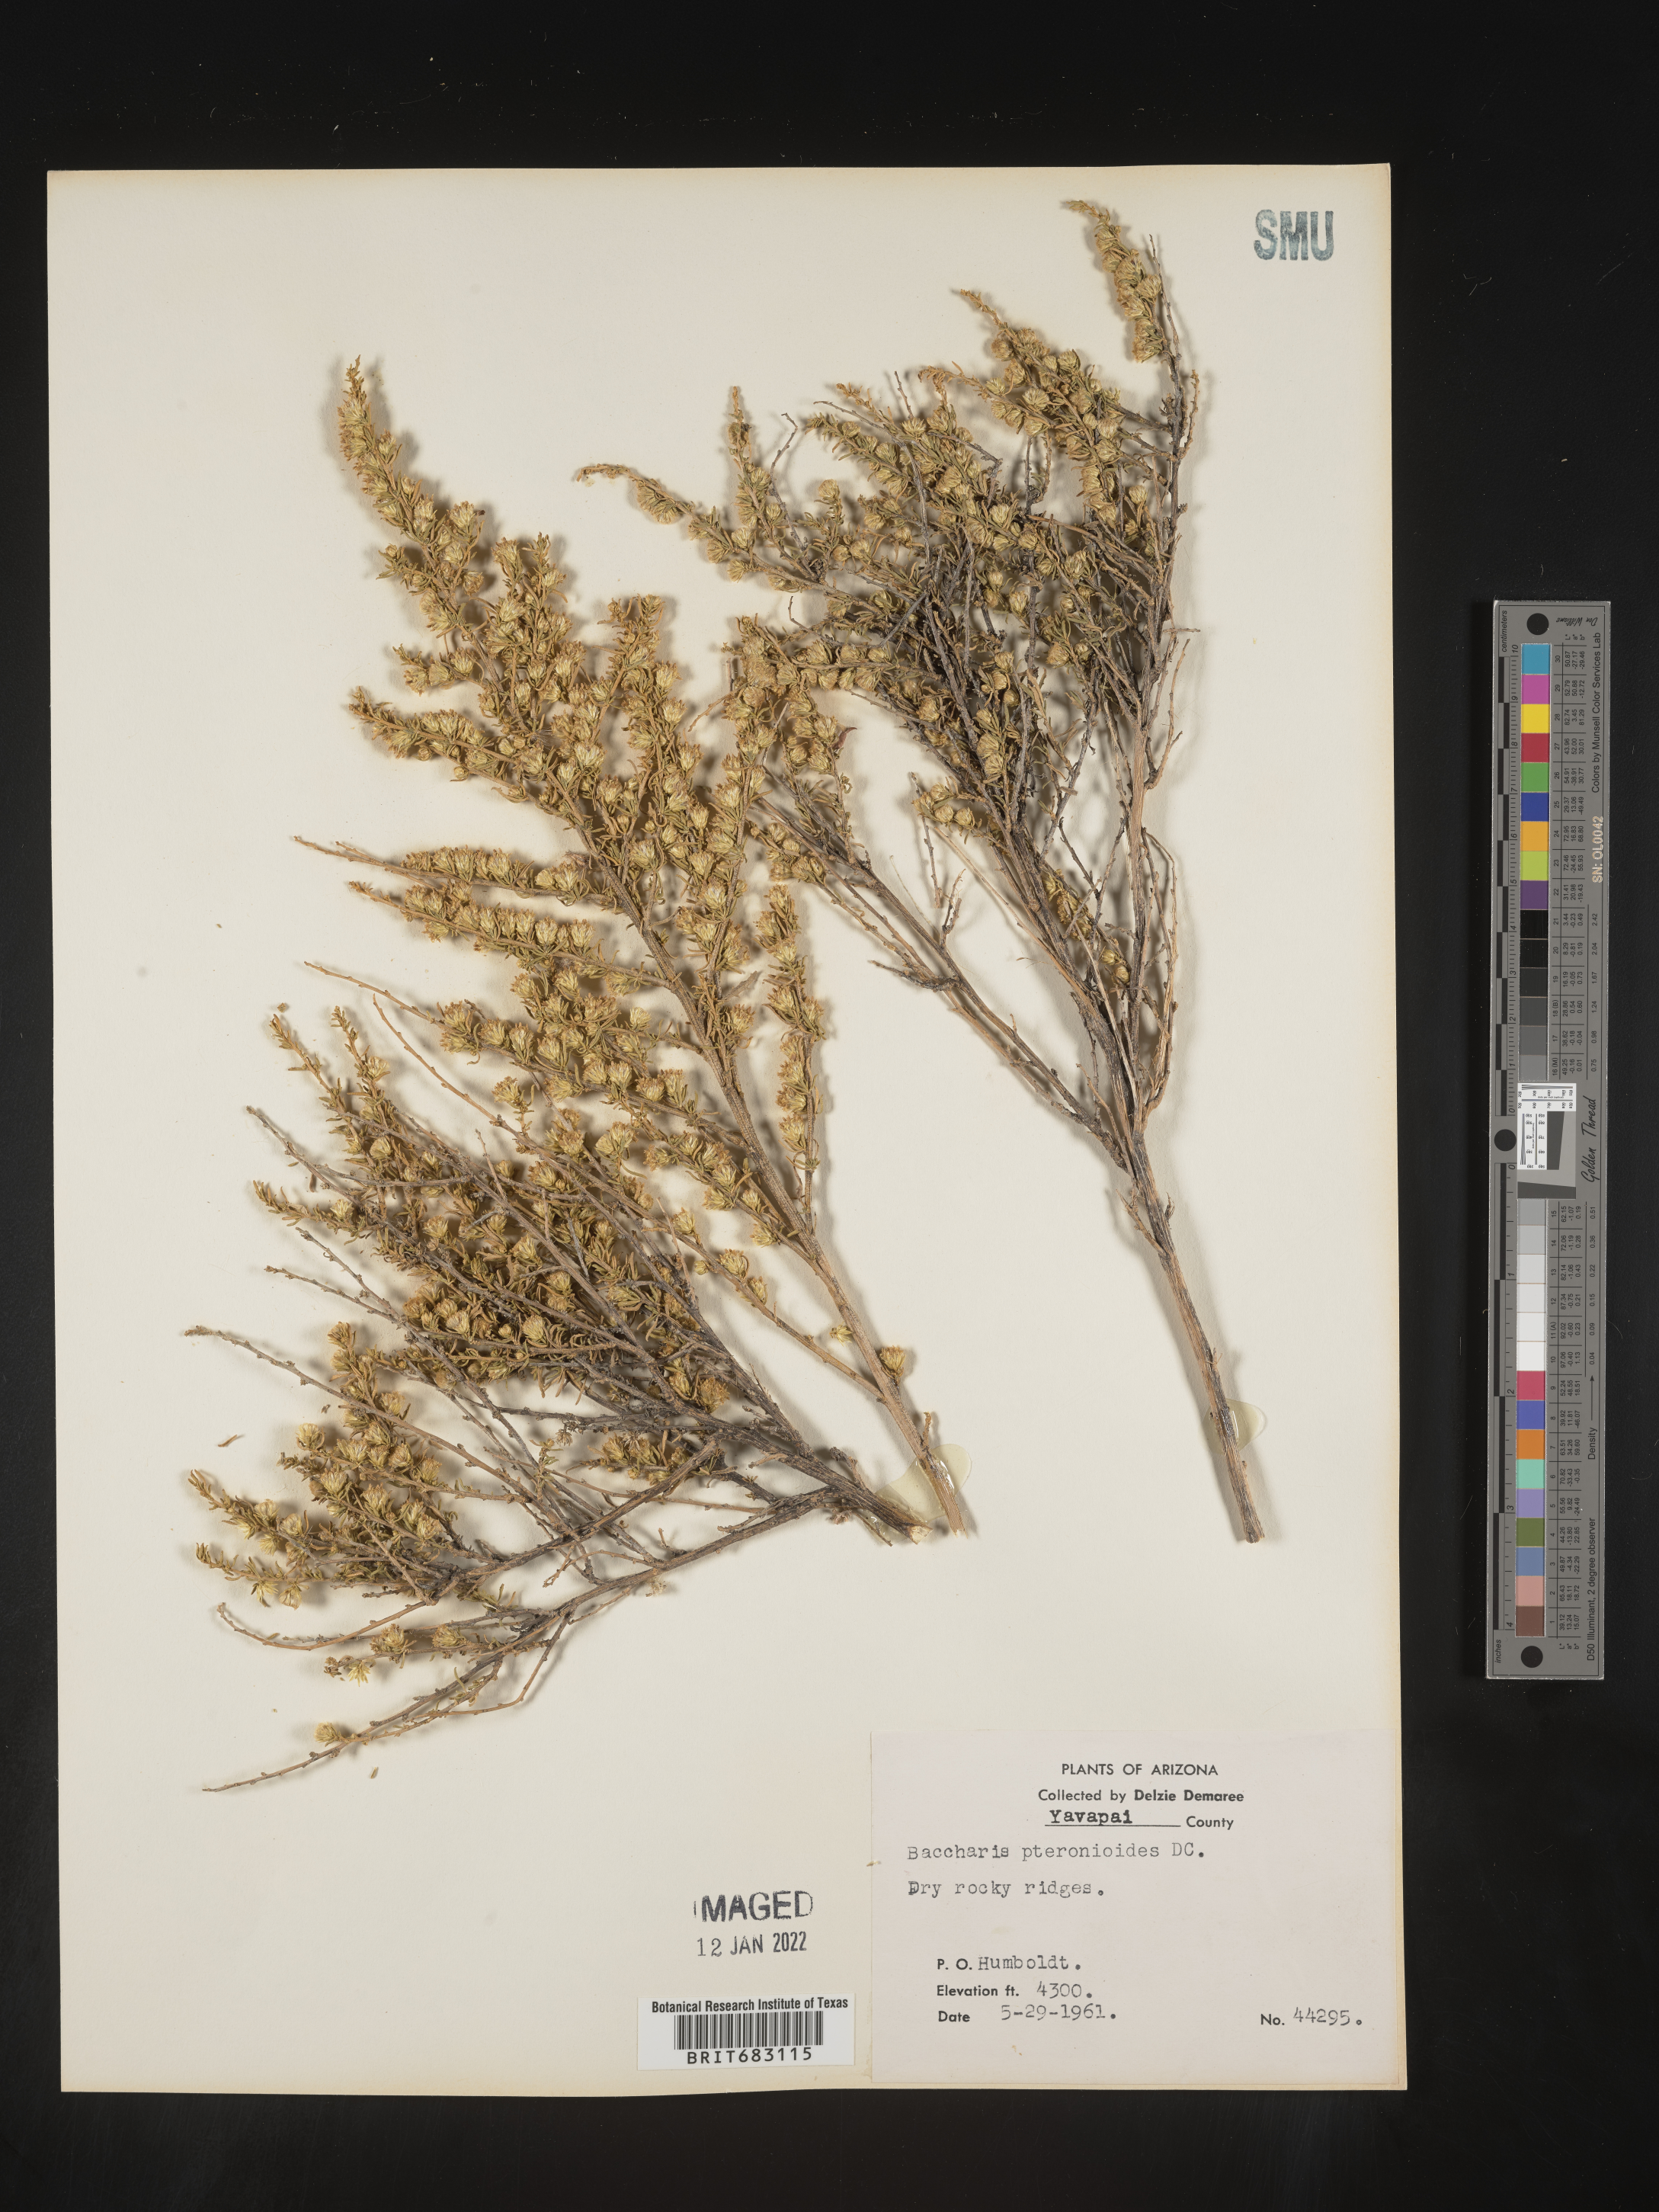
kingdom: Plantae
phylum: Tracheophyta
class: Magnoliopsida
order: Asterales
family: Asteraceae
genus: Baccharis
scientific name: Baccharis pteronioides
